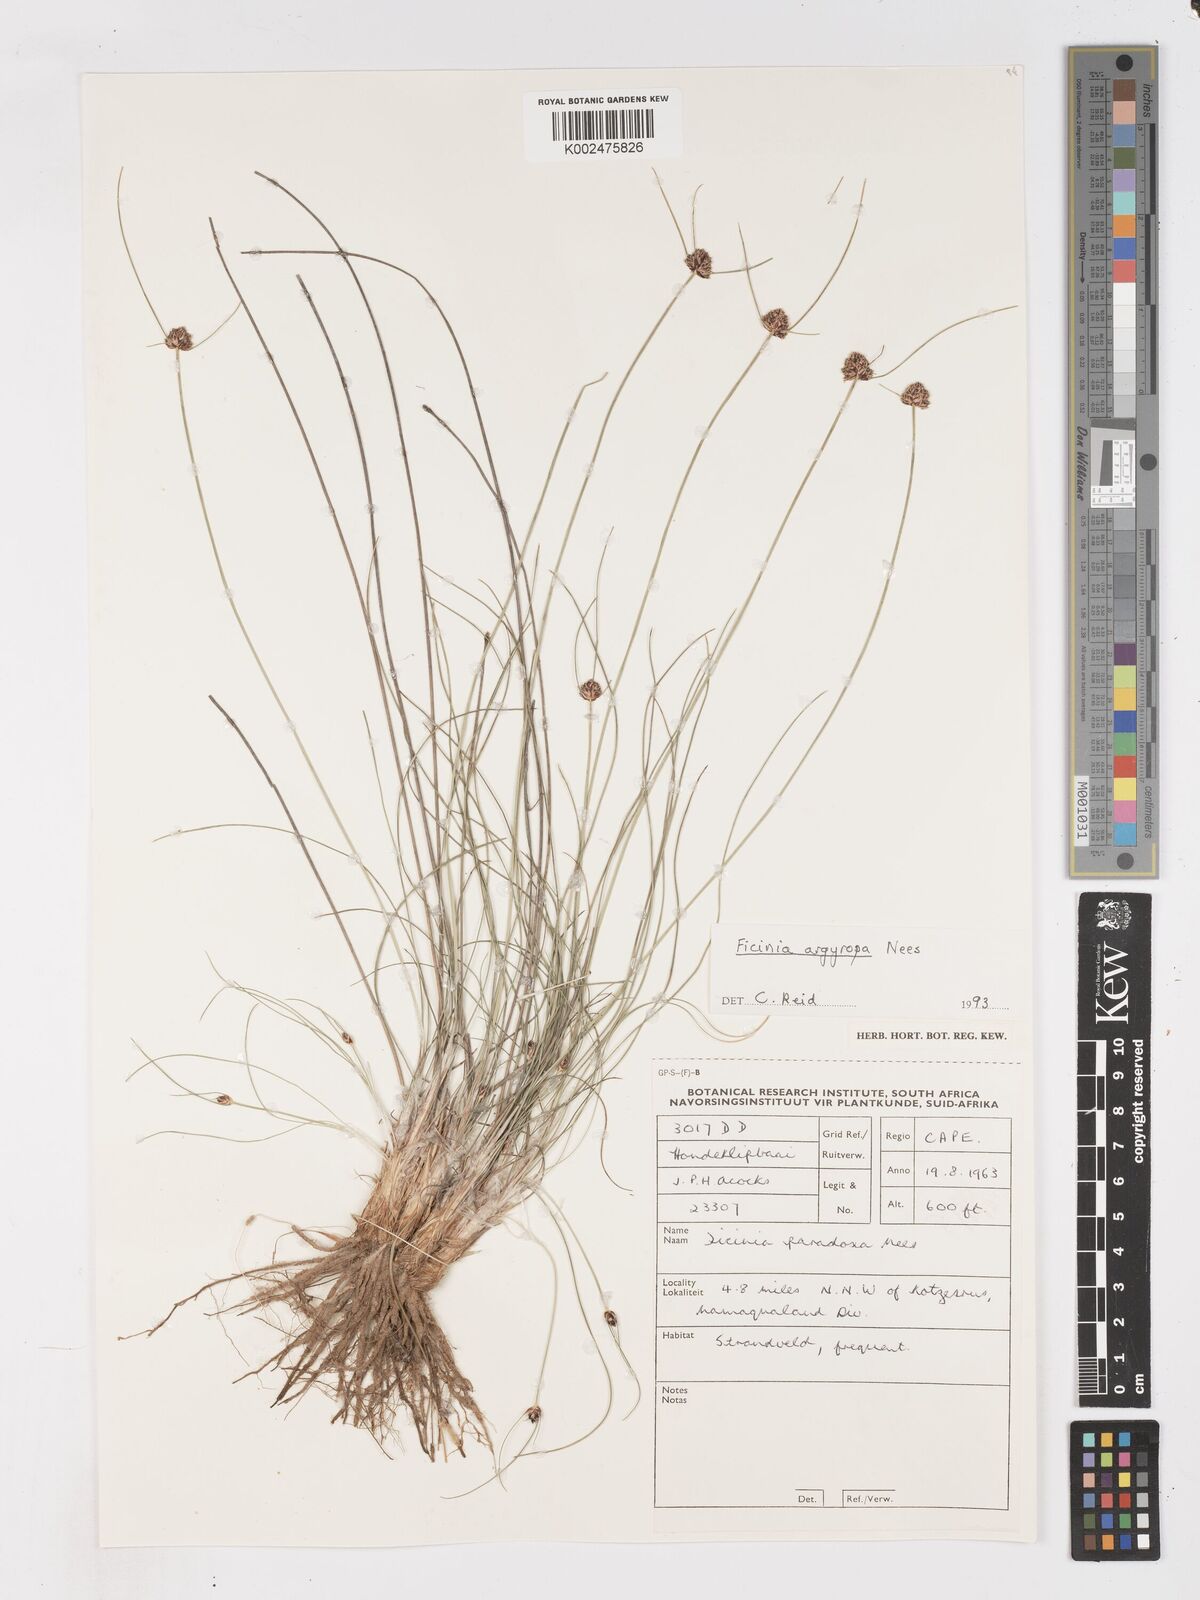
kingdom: Plantae
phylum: Tracheophyta
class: Liliopsida
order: Poales
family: Cyperaceae
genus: Ficinia
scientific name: Ficinia argyropus
